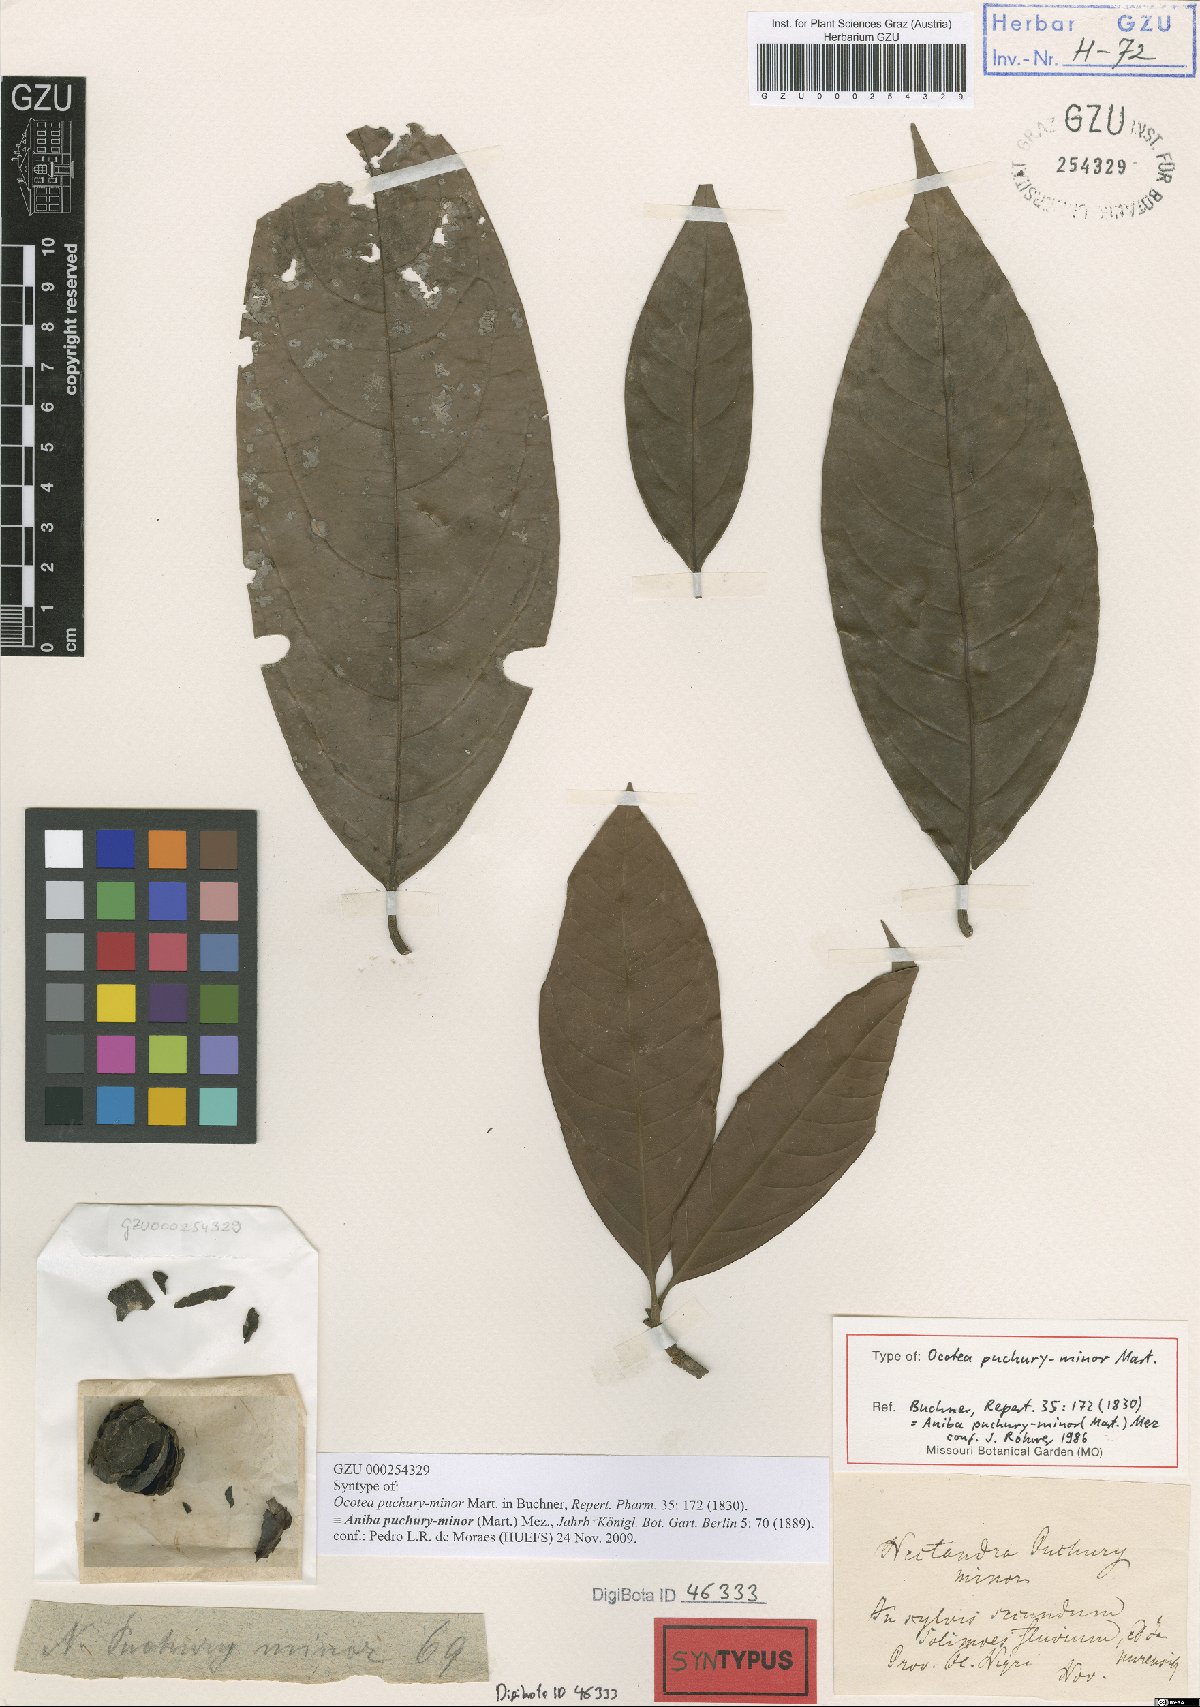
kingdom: Plantae
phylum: Tracheophyta
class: Magnoliopsida
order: Laurales
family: Lauraceae
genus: Aniba
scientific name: Aniba puchury-minor
